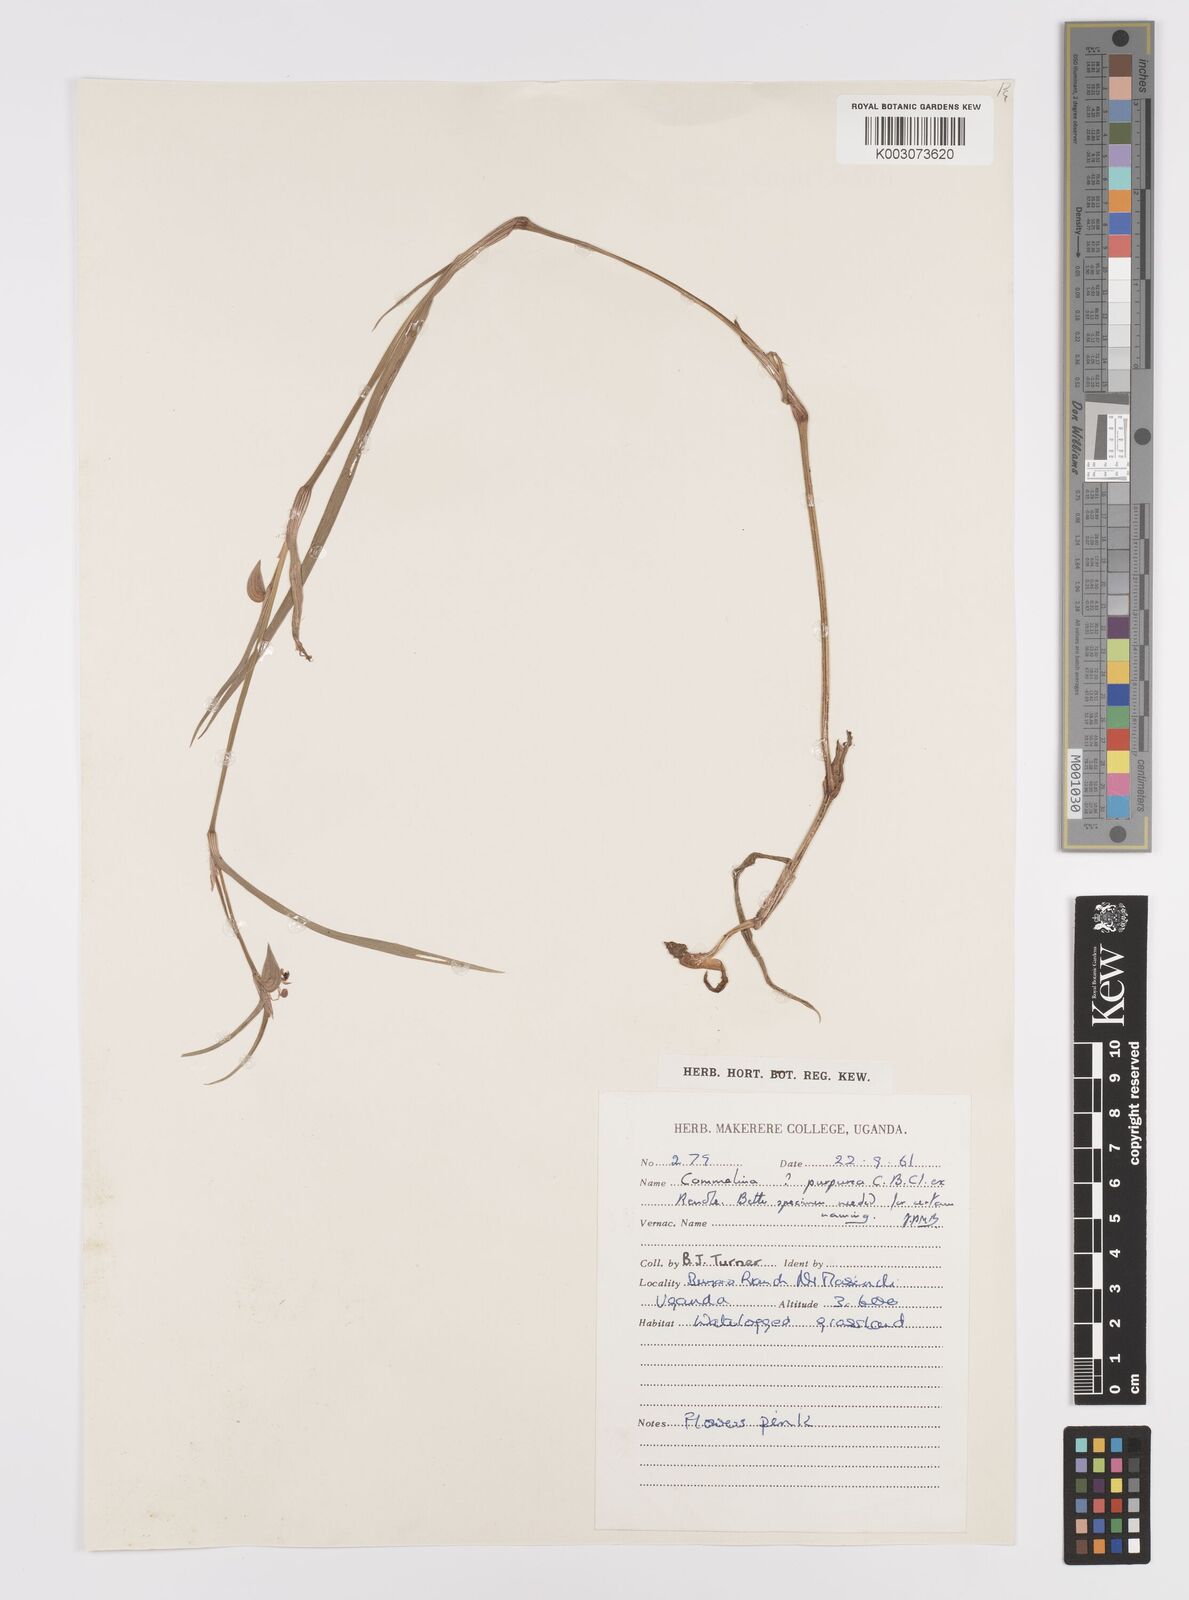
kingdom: Plantae
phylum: Tracheophyta
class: Liliopsida
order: Commelinales
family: Commelinaceae
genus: Commelina
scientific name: Commelina purpurea
